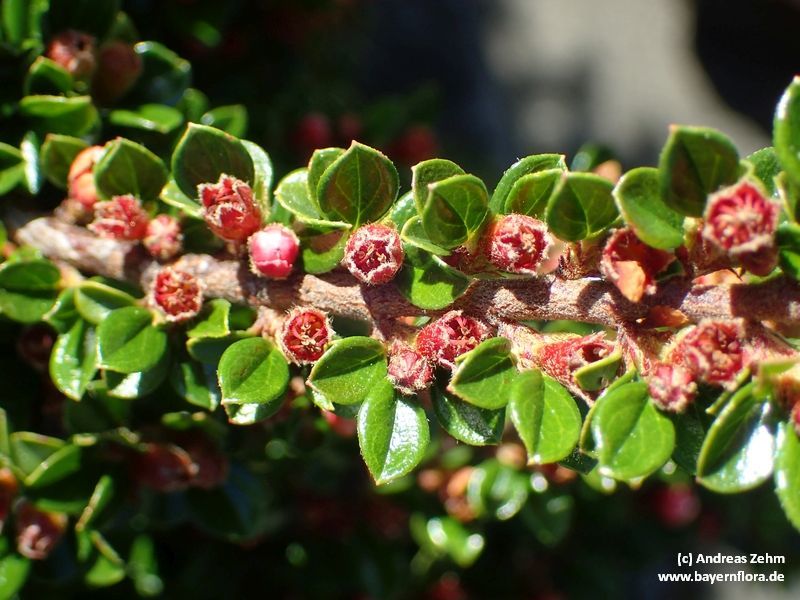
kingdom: Plantae
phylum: Tracheophyta
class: Magnoliopsida
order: Rosales
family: Rosaceae
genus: Cotoneaster
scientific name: Cotoneaster horizontalis
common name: Wall cotoneaster
